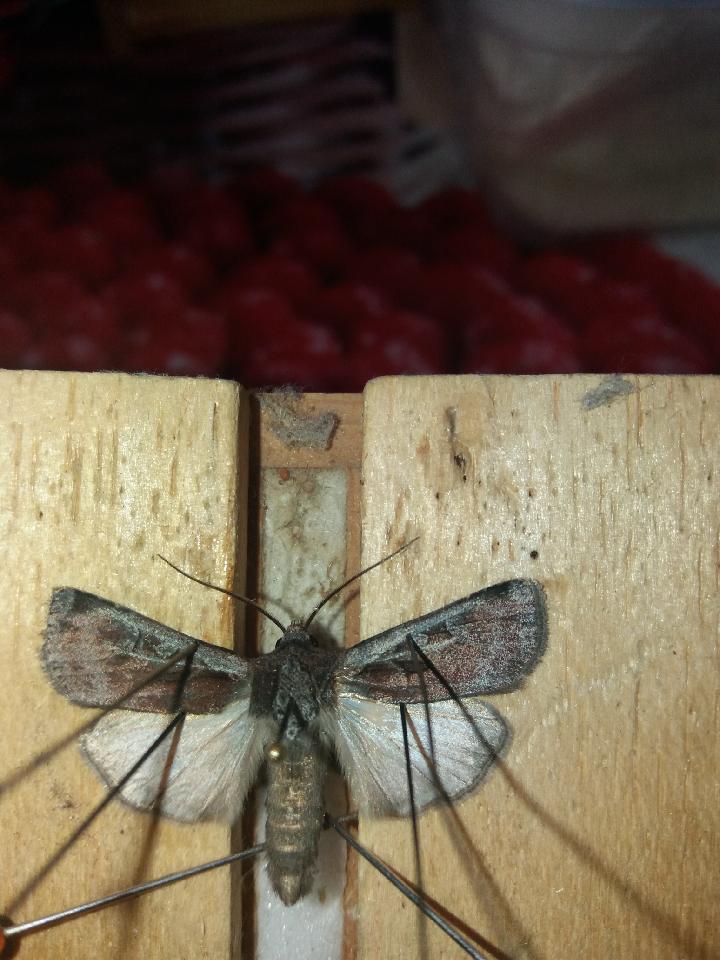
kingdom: Animalia
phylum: Arthropoda
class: Insecta
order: Lepidoptera
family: Noctuidae
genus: Euxoa
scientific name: Euxoa vitta
